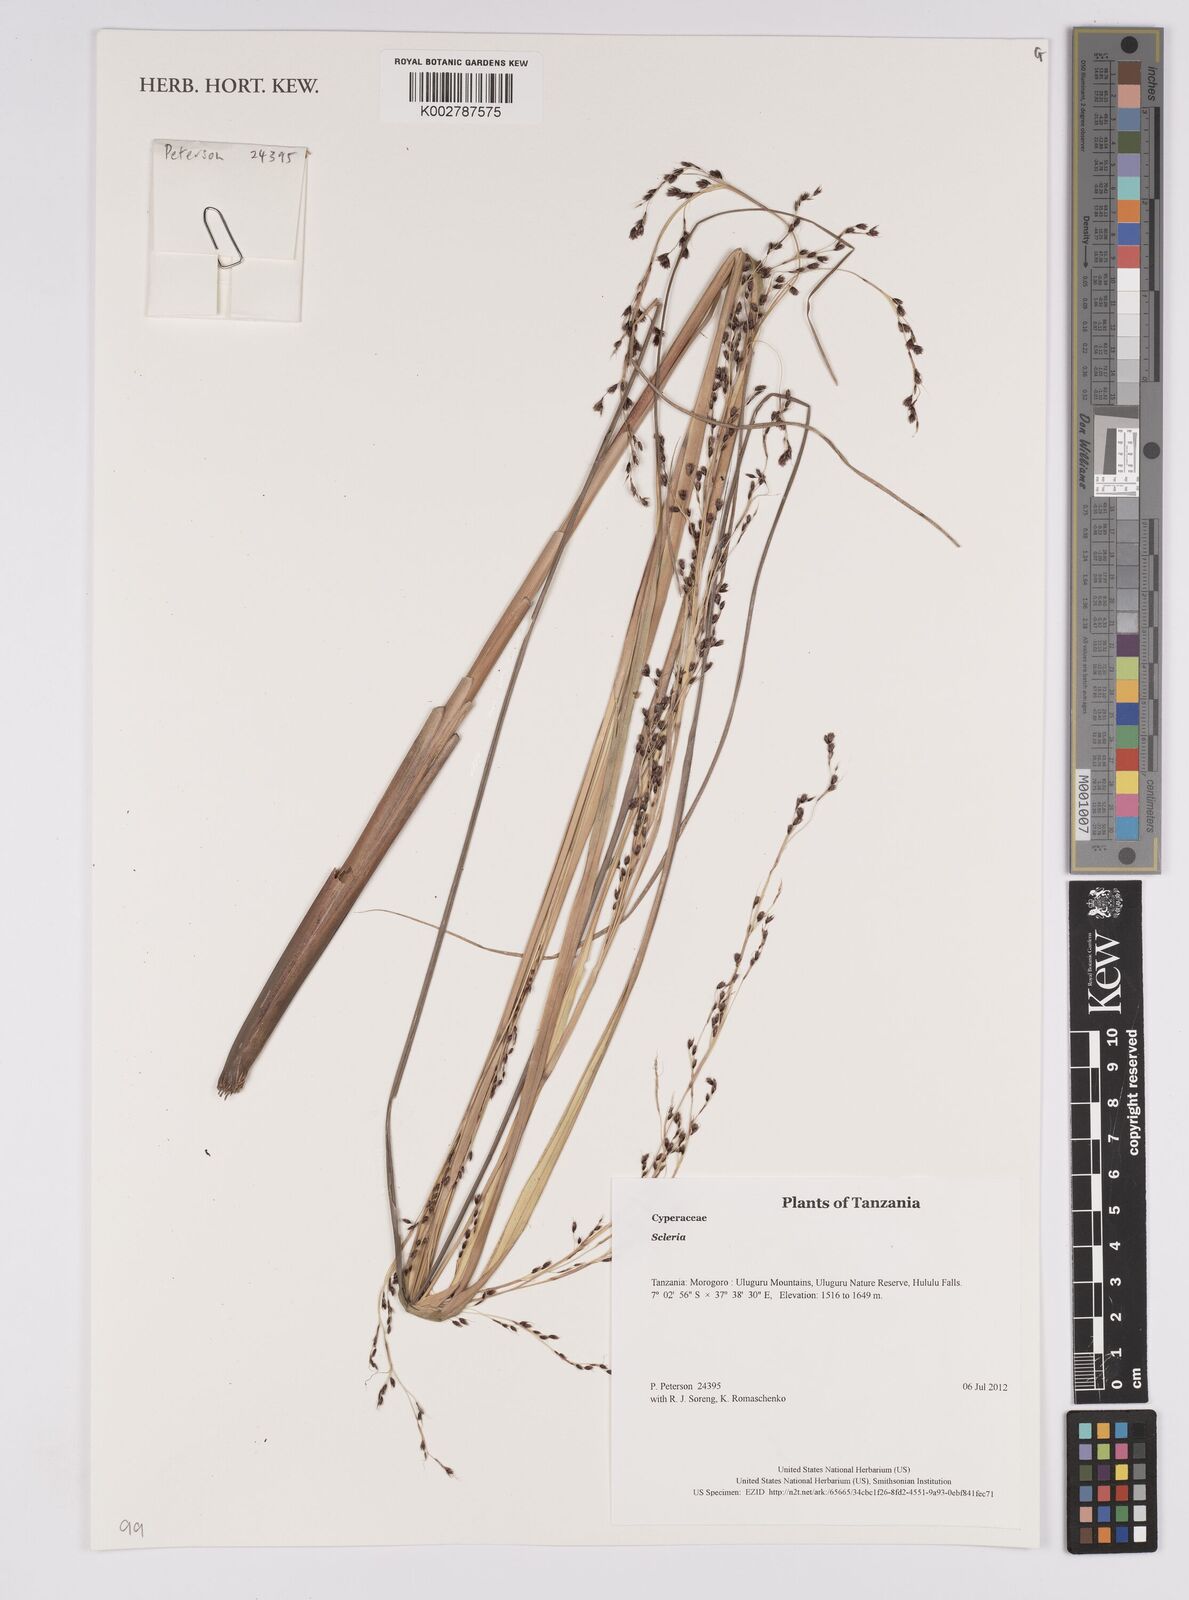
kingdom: Plantae
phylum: Tracheophyta
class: Liliopsida
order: Poales
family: Cyperaceae
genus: Scleria
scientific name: Scleria
